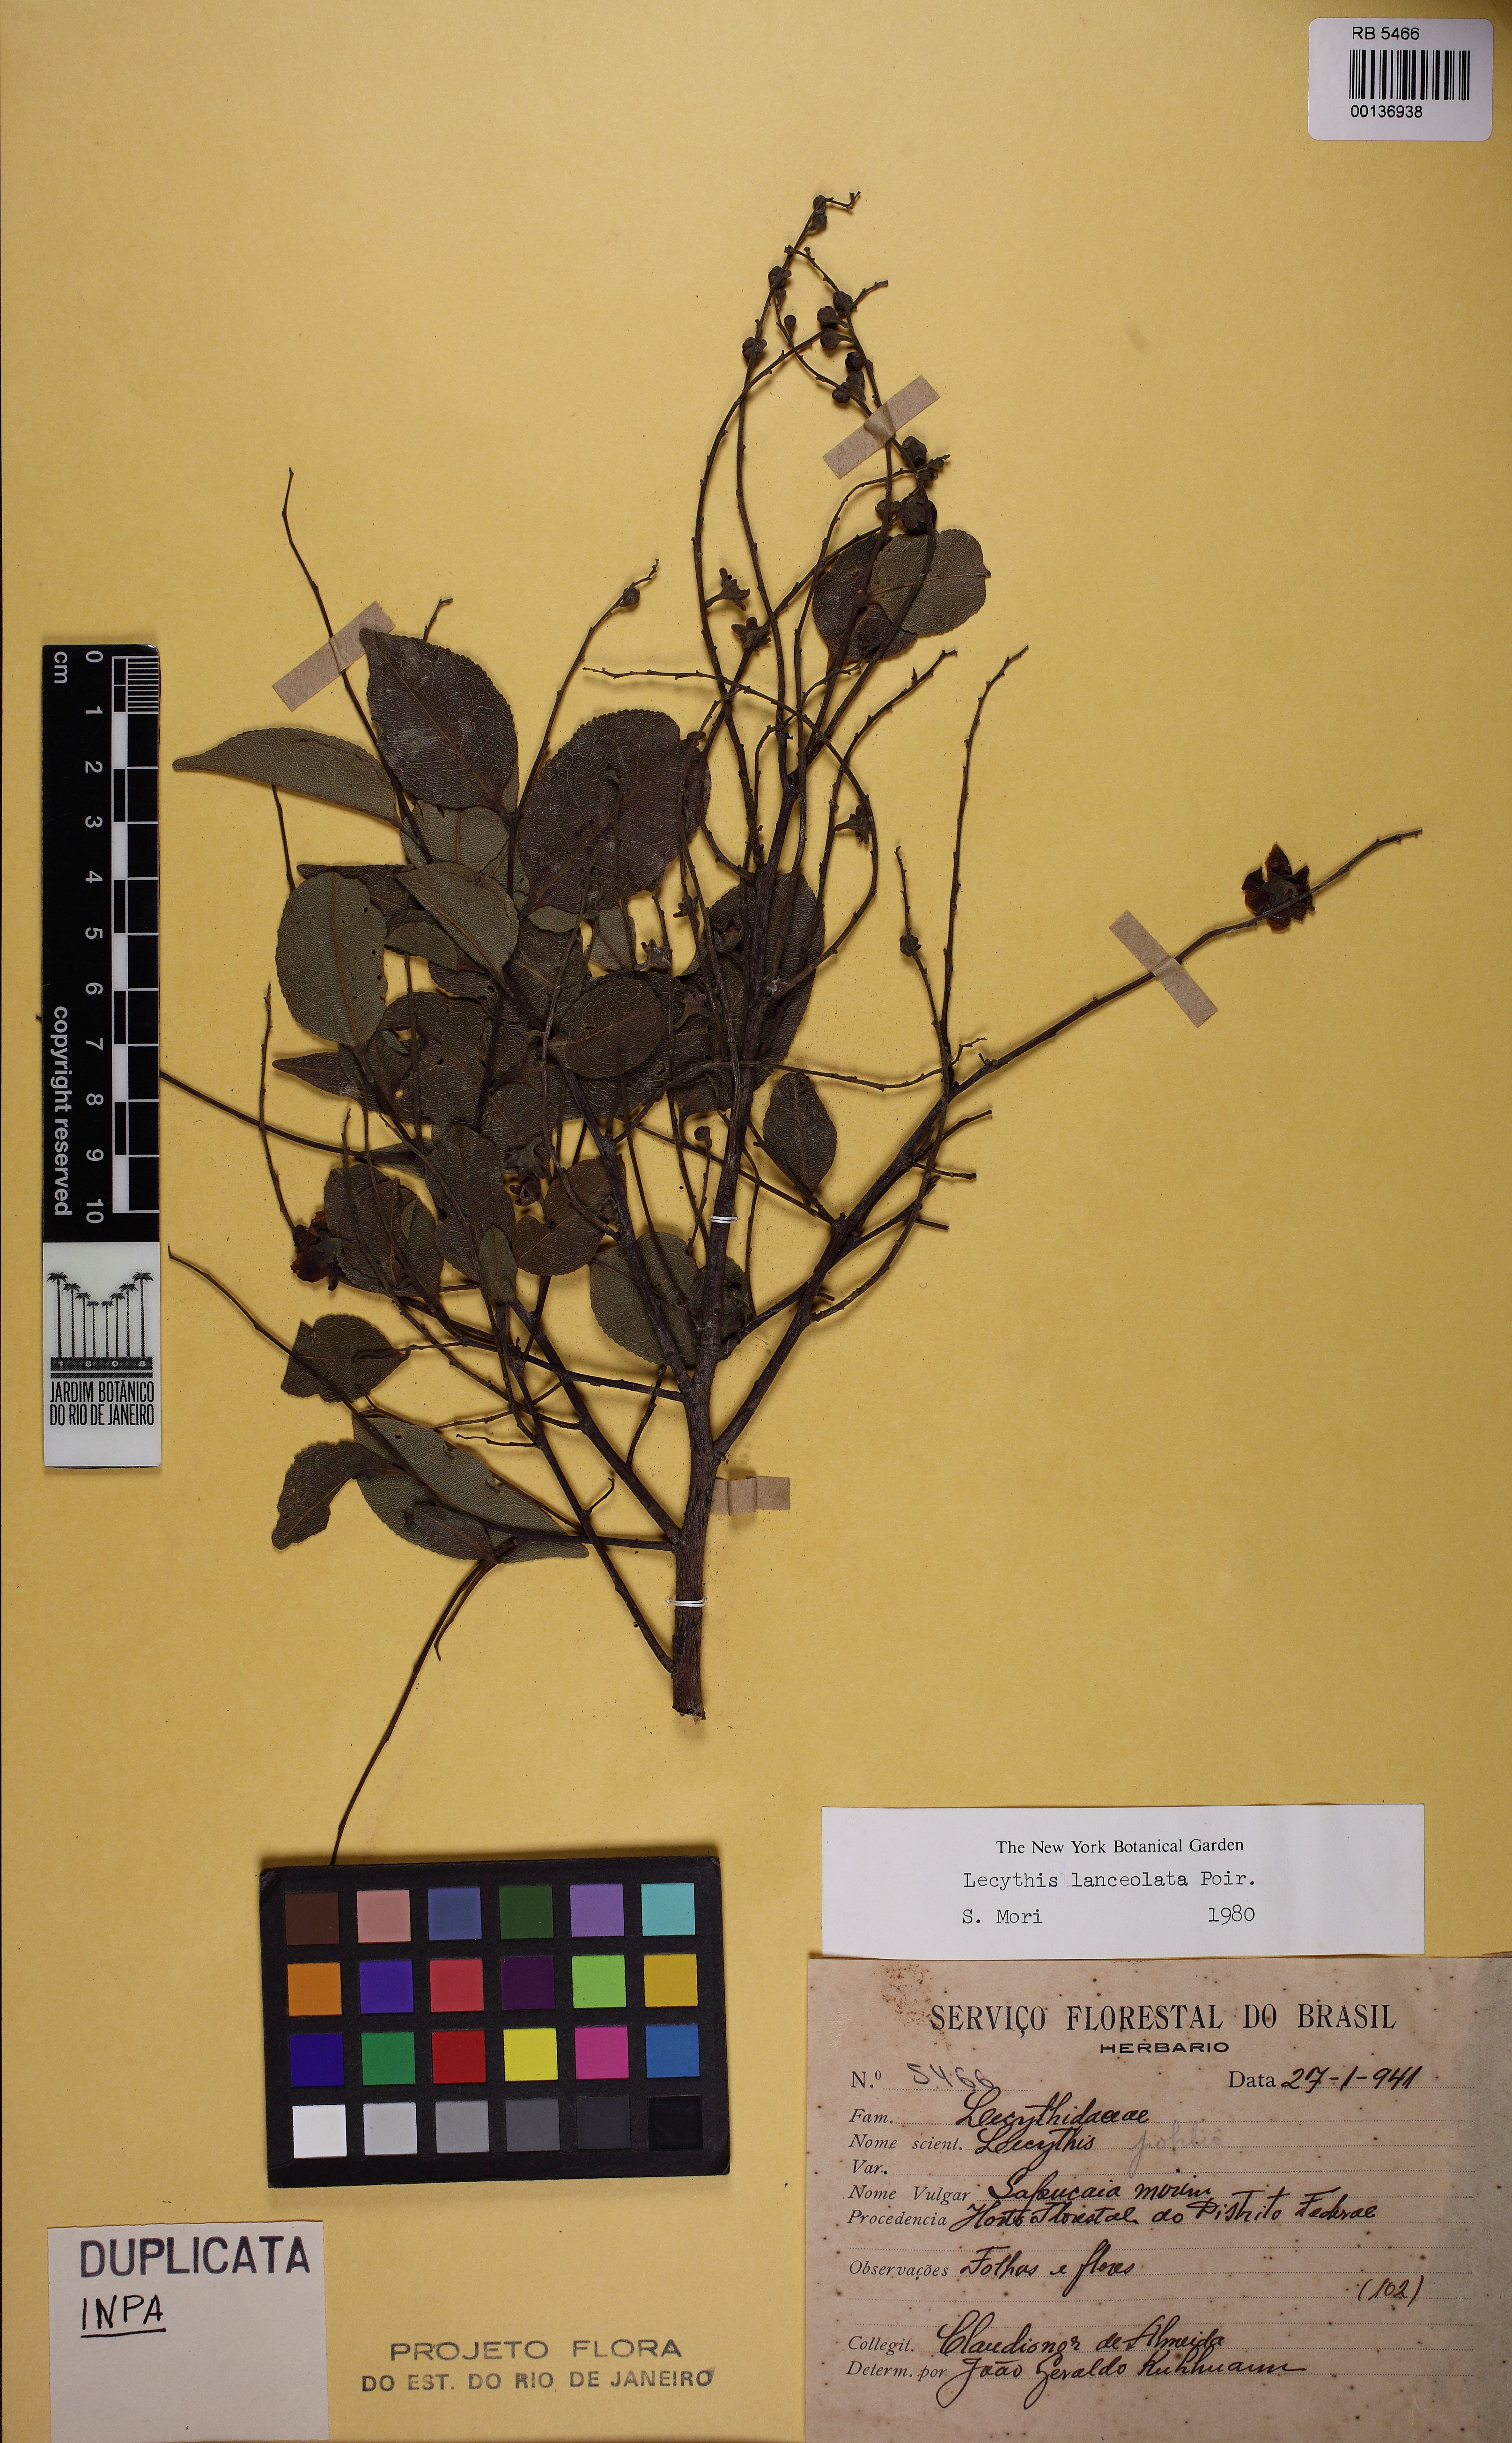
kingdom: Plantae
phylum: Tracheophyta
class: Magnoliopsida
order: Ericales
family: Lecythidaceae
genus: Lecythis
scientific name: Lecythis lanceolata
